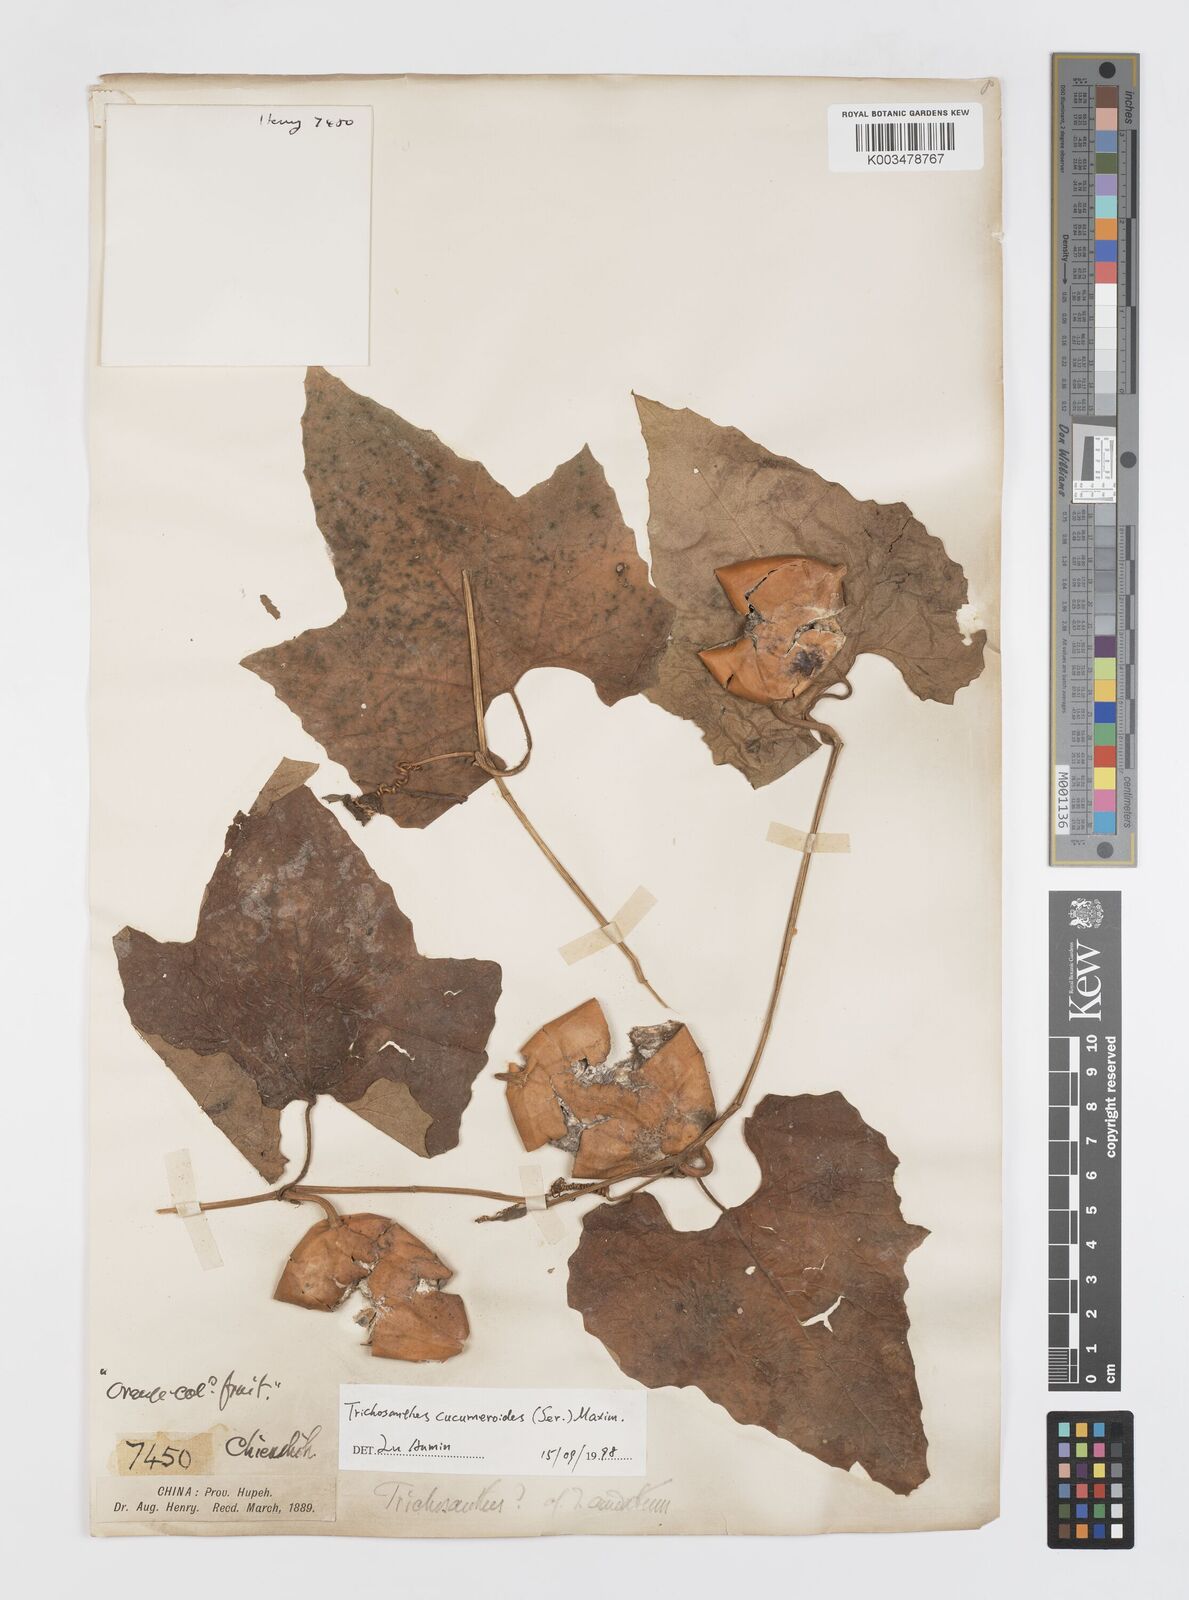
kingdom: Plantae
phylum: Tracheophyta
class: Magnoliopsida
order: Cucurbitales
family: Cucurbitaceae
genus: Trichosanthes
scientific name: Trichosanthes ovigera
